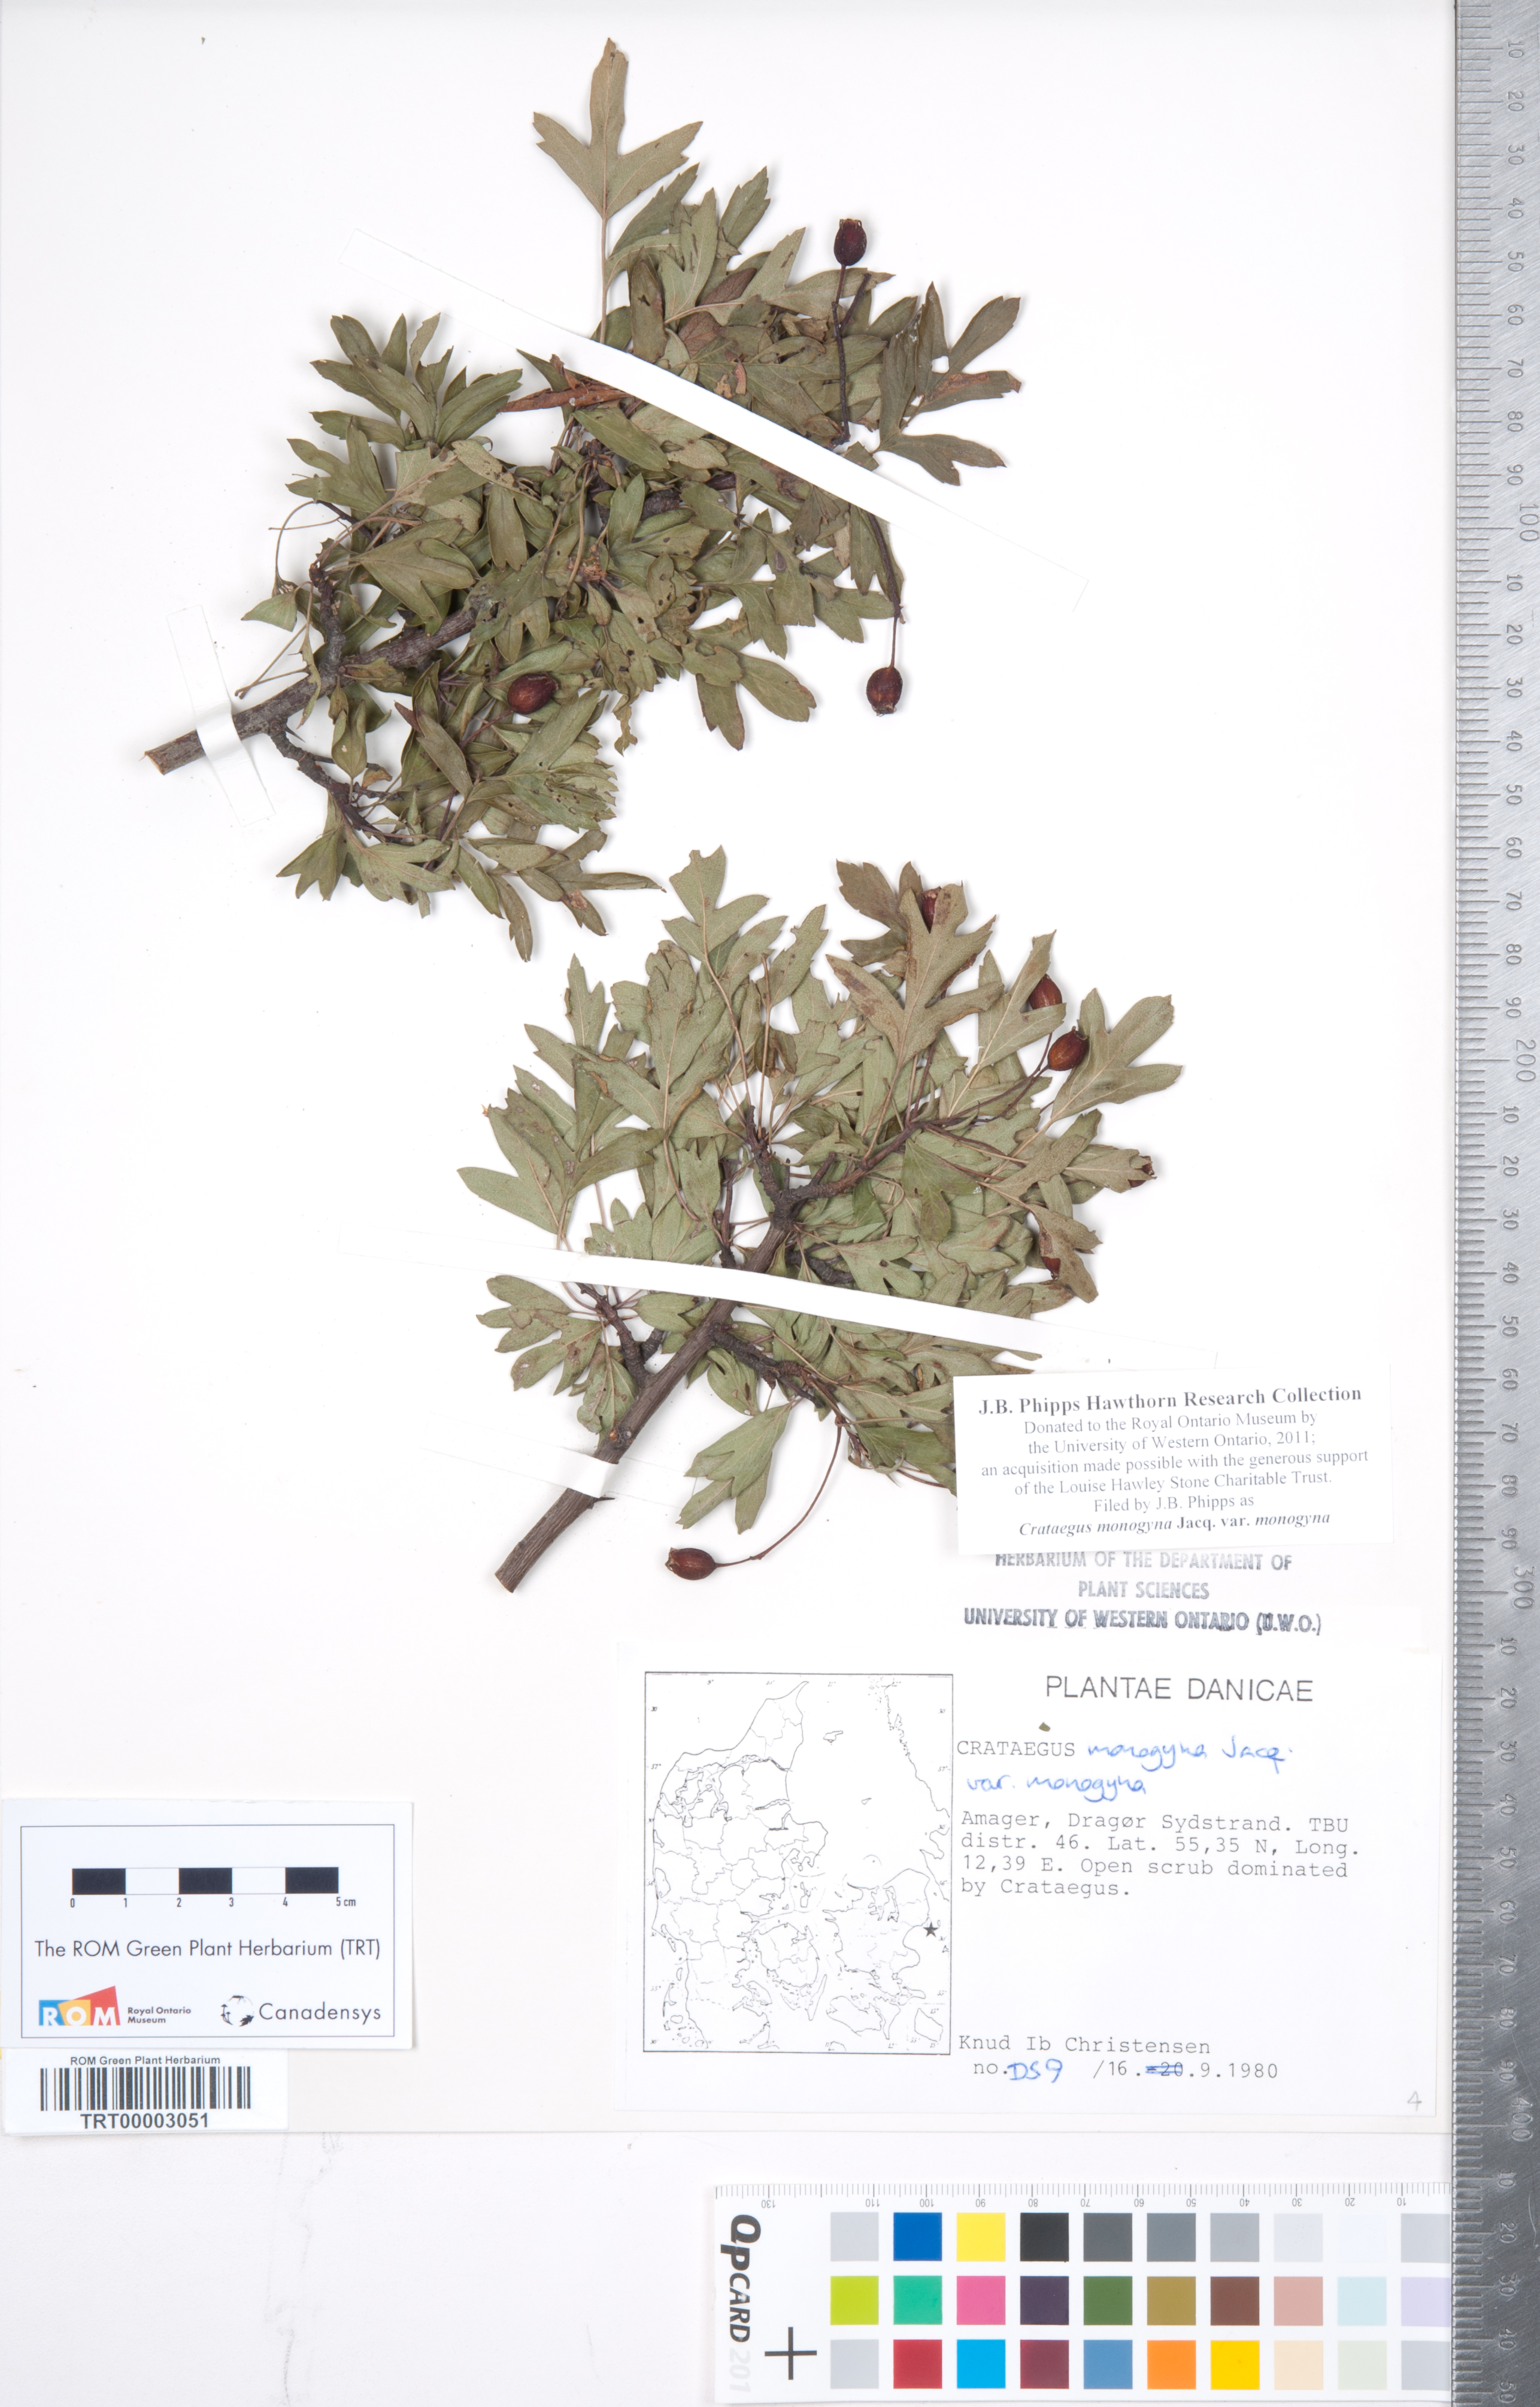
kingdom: Plantae
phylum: Tracheophyta
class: Magnoliopsida
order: Rosales
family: Rosaceae
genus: Crataegus
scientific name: Crataegus monogyna
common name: Hawthorn
